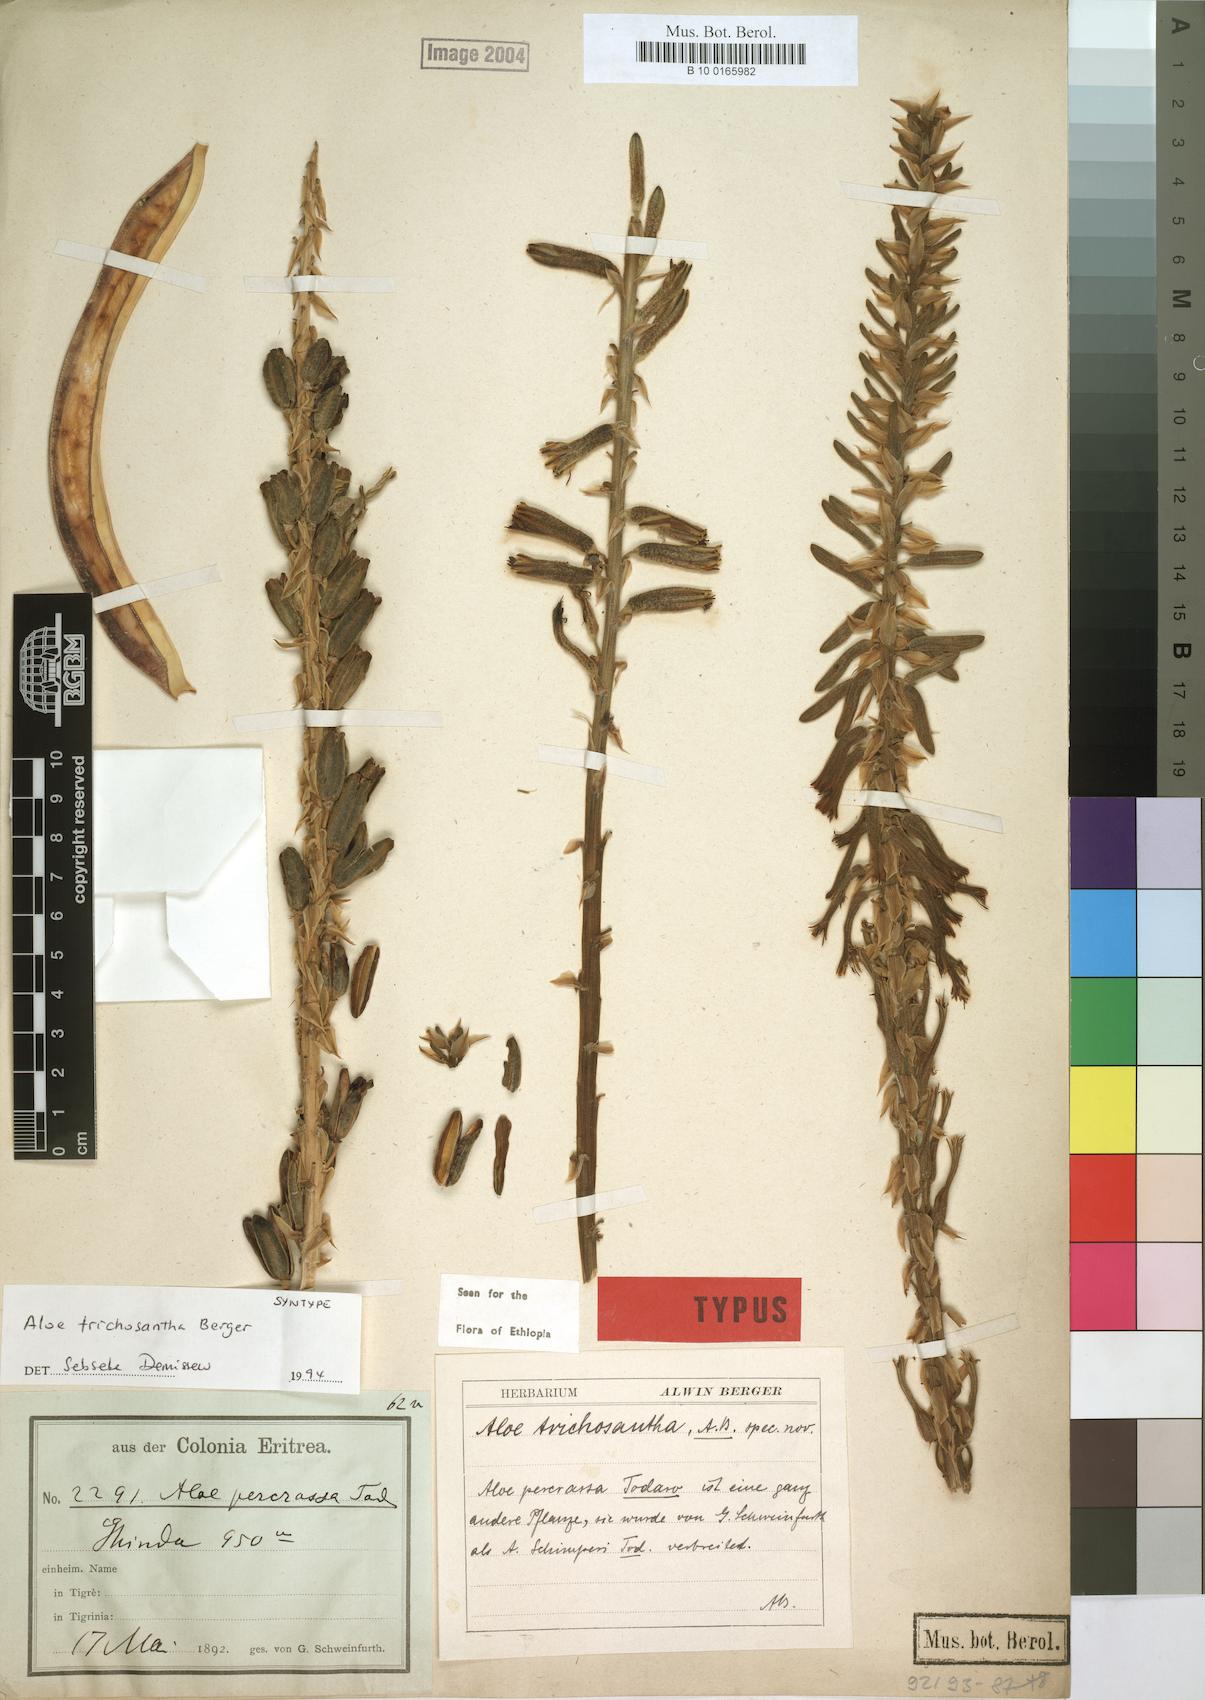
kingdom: Plantae
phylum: Tracheophyta
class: Liliopsida
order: Asparagales
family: Asphodelaceae
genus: Aloe
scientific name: Aloe trichosantha
